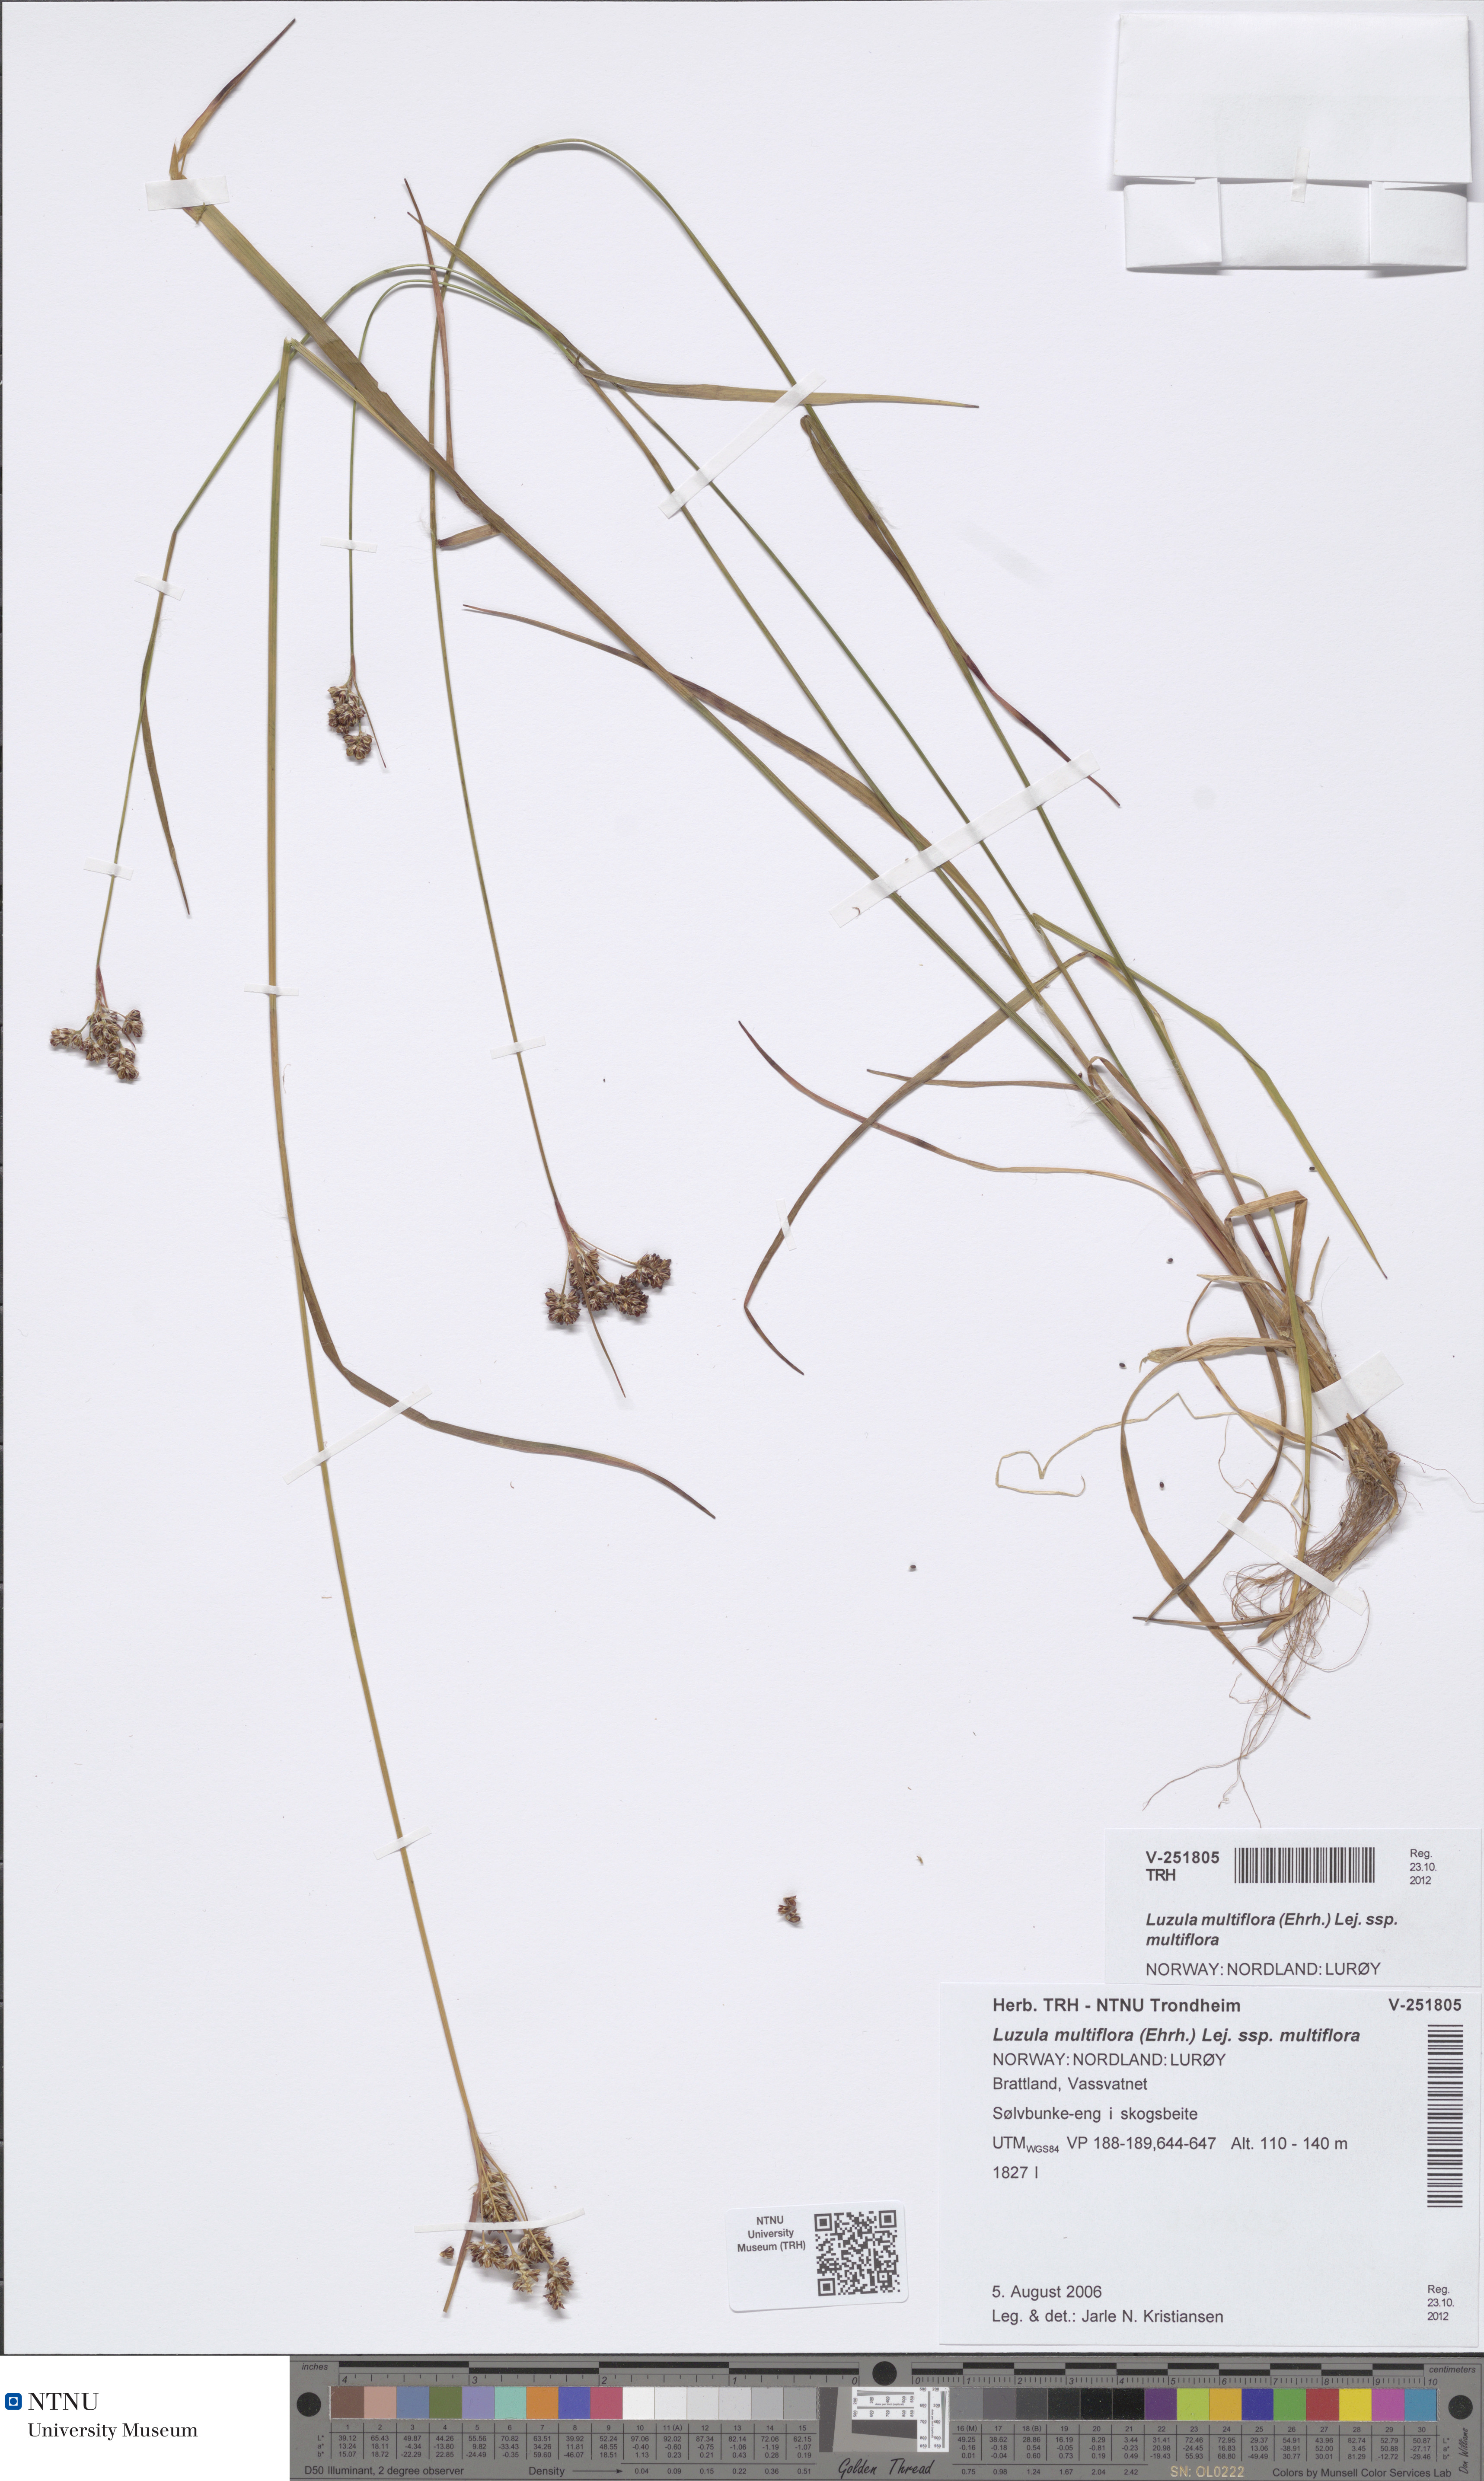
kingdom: Plantae
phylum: Tracheophyta
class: Liliopsida
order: Poales
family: Juncaceae
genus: Luzula
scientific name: Luzula multiflora
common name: Heath wood-rush
